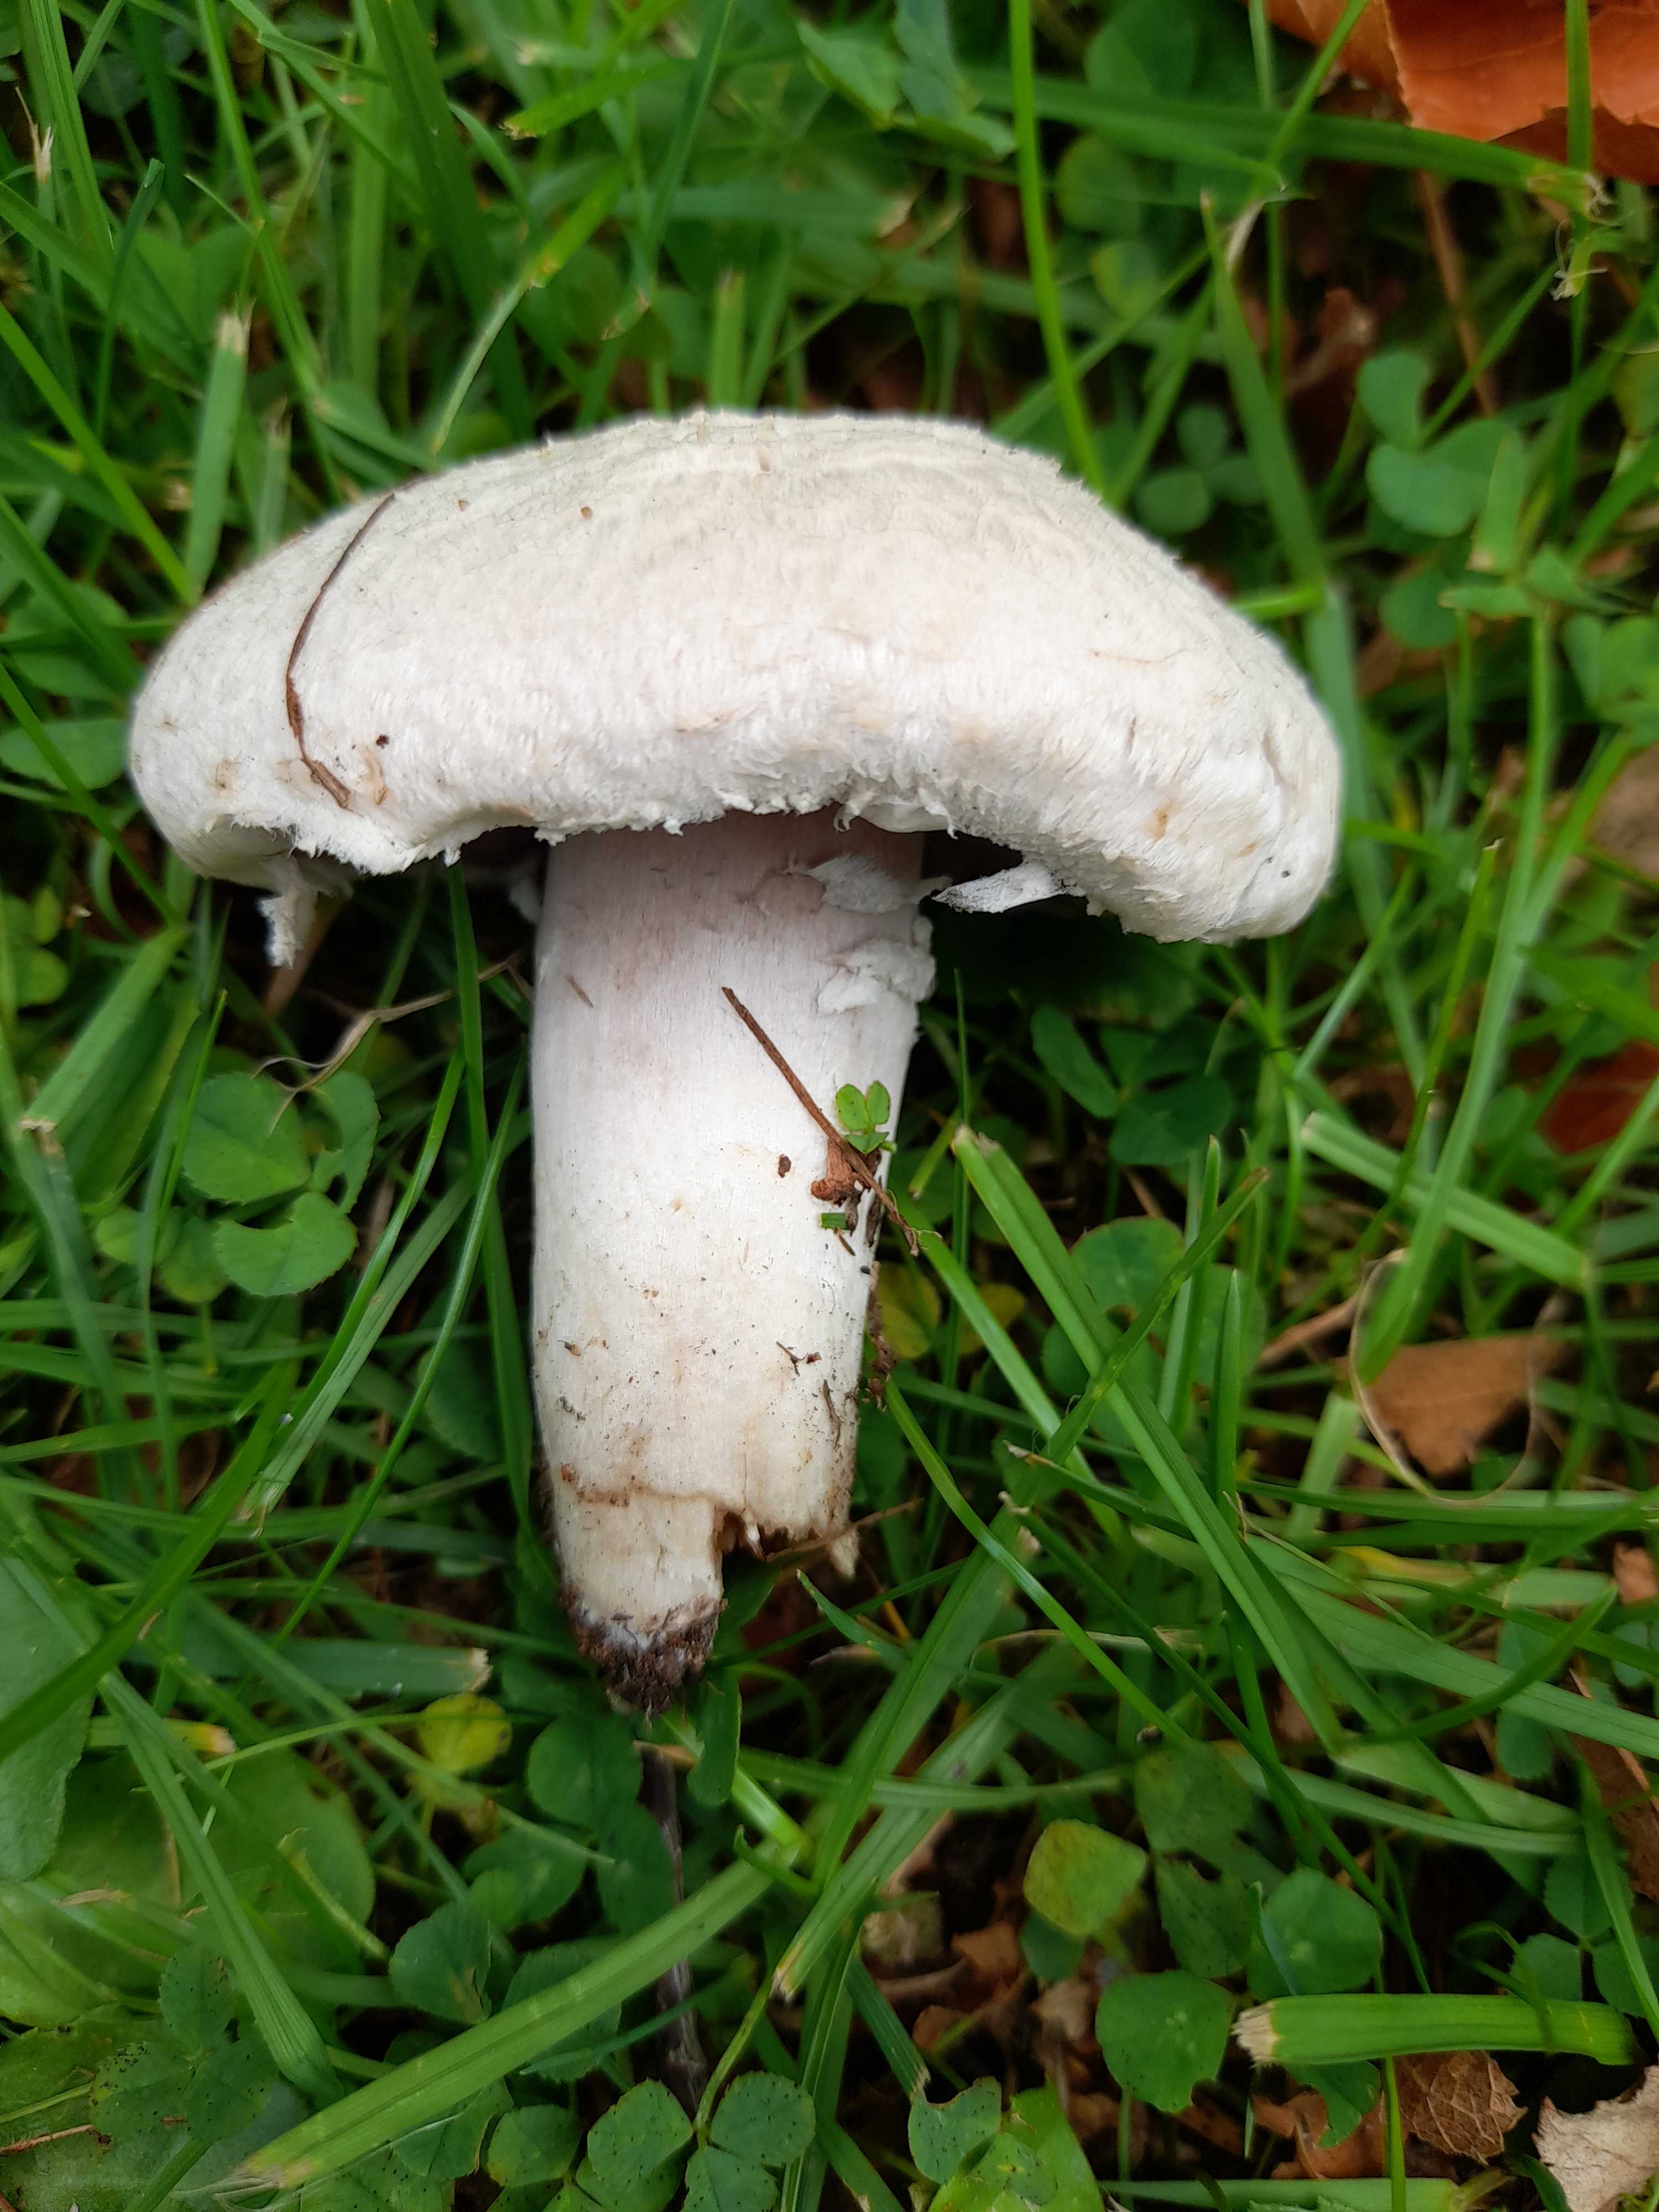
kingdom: Fungi
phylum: Basidiomycota
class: Agaricomycetes
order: Agaricales
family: Agaricaceae
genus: Agaricus
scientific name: Agaricus campestris
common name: mark-champignon
